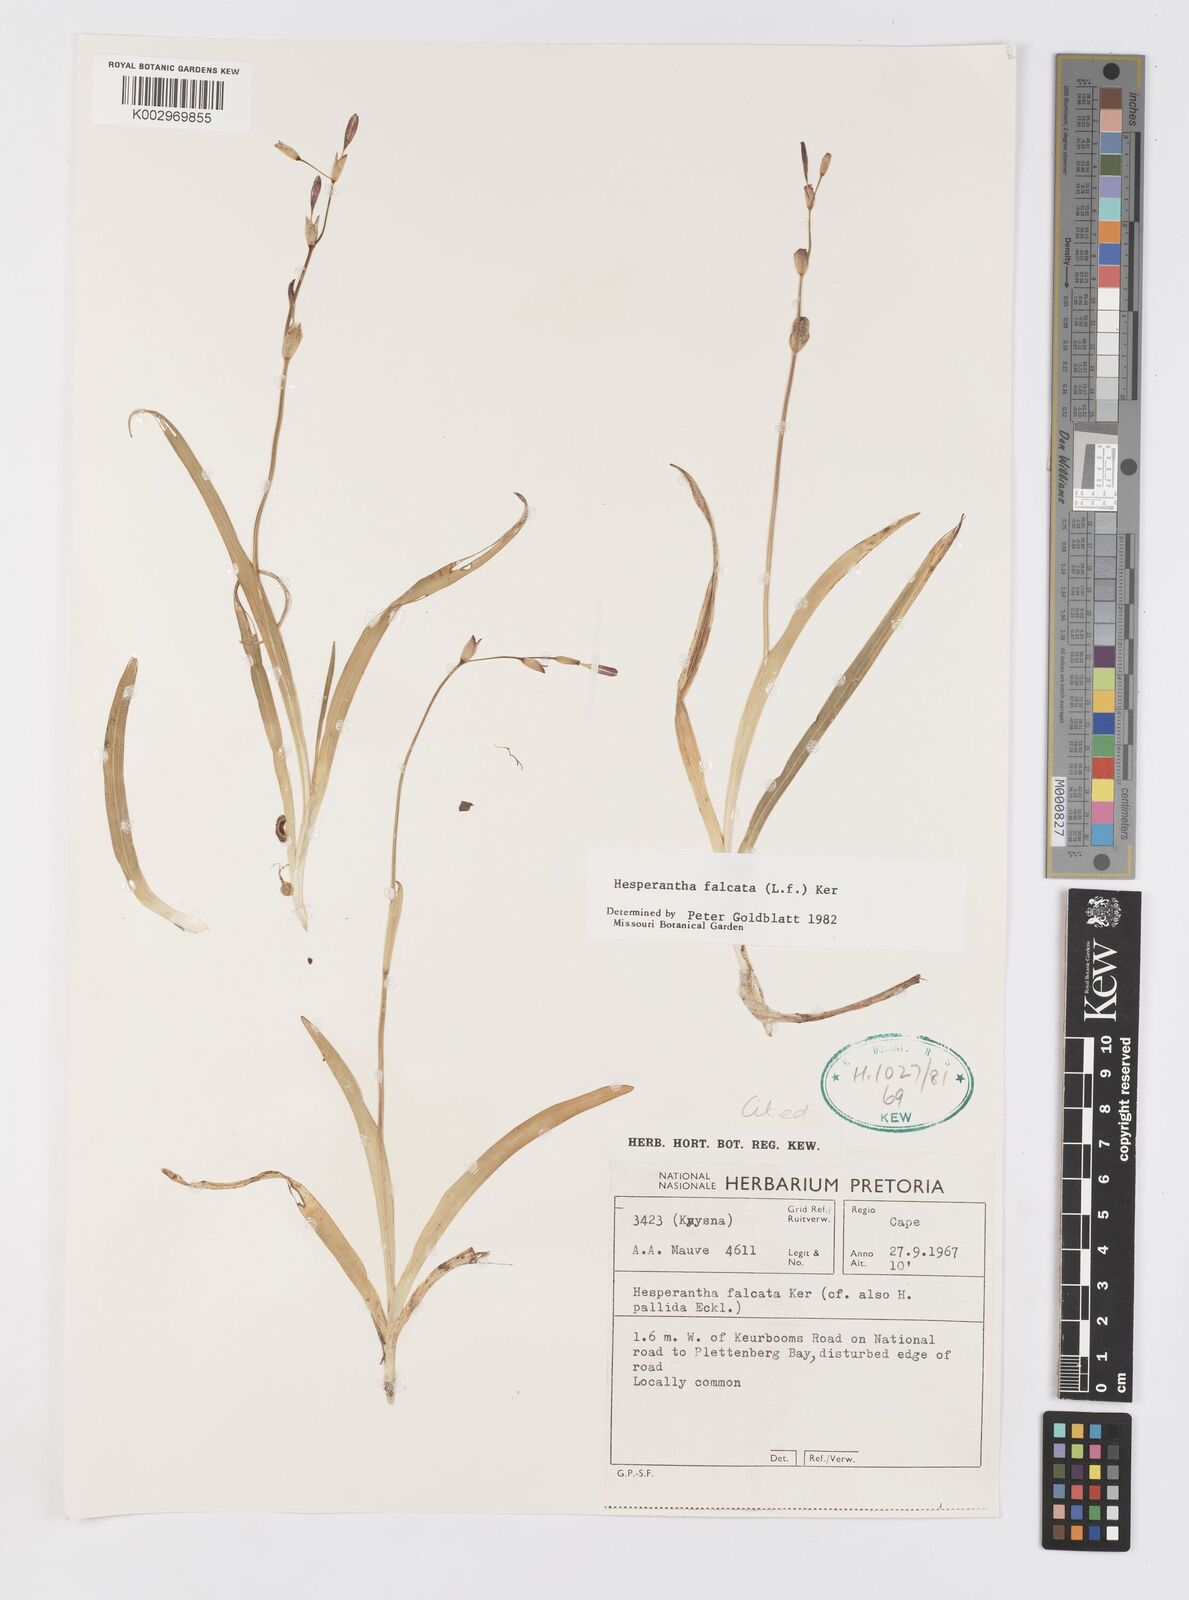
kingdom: Plantae
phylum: Tracheophyta
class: Liliopsida
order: Asparagales
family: Iridaceae
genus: Hesperantha
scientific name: Hesperantha falcata
